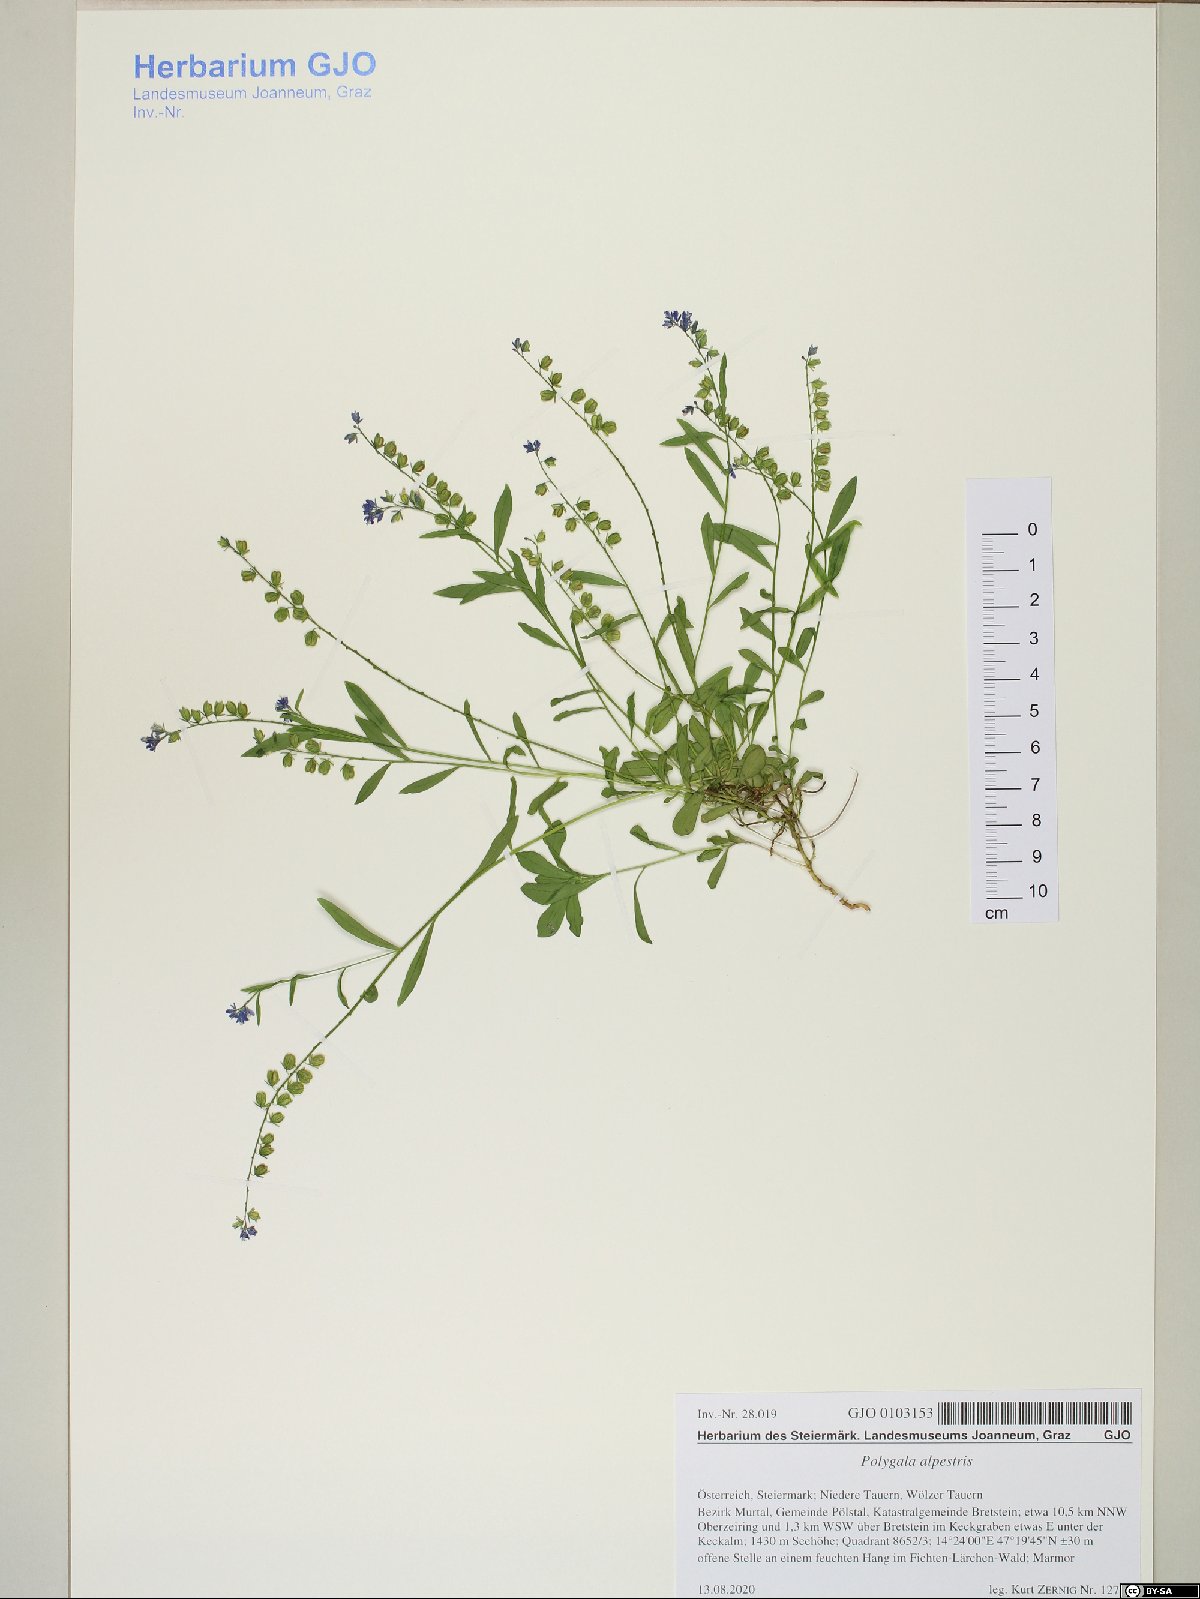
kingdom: Plantae
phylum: Tracheophyta
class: Magnoliopsida
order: Fabales
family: Polygalaceae
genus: Polygala
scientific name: Polygala alpestris
